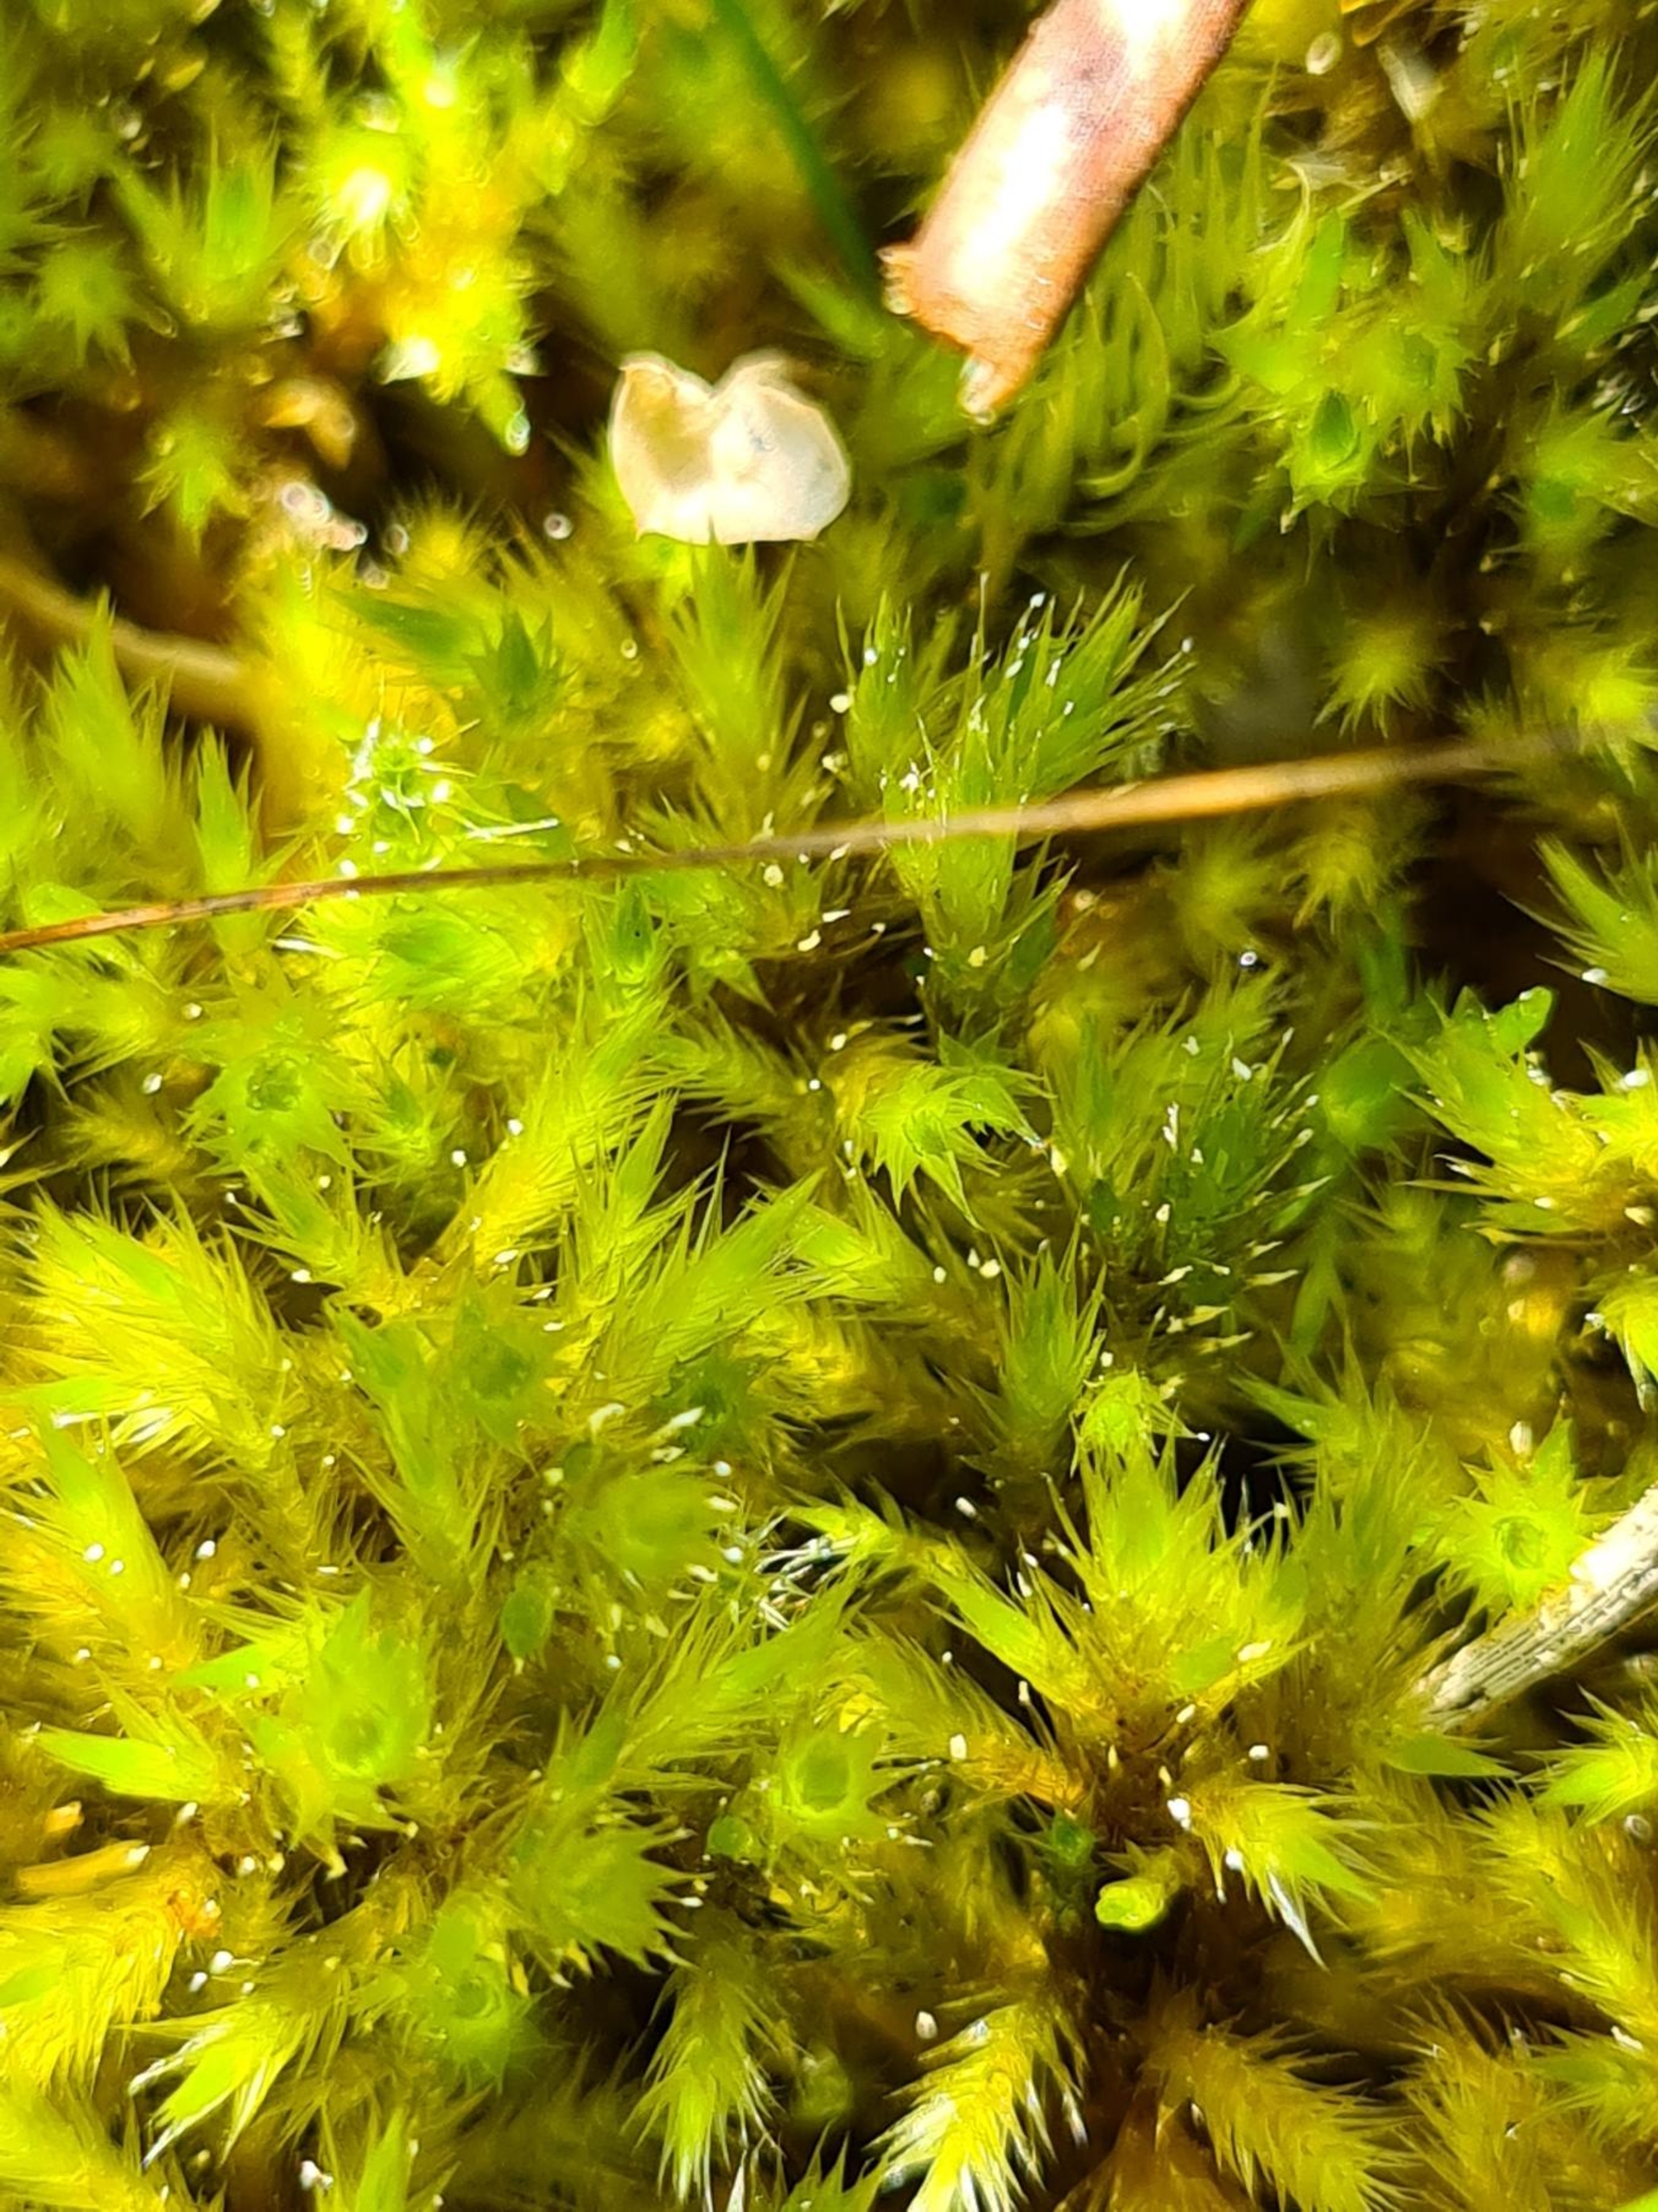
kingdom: Plantae
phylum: Bryophyta
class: Bryopsida
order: Hypnales
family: Amblystegiaceae
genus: Tomentypnum
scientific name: Tomentypnum nitens
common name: Glinsende kærmos
